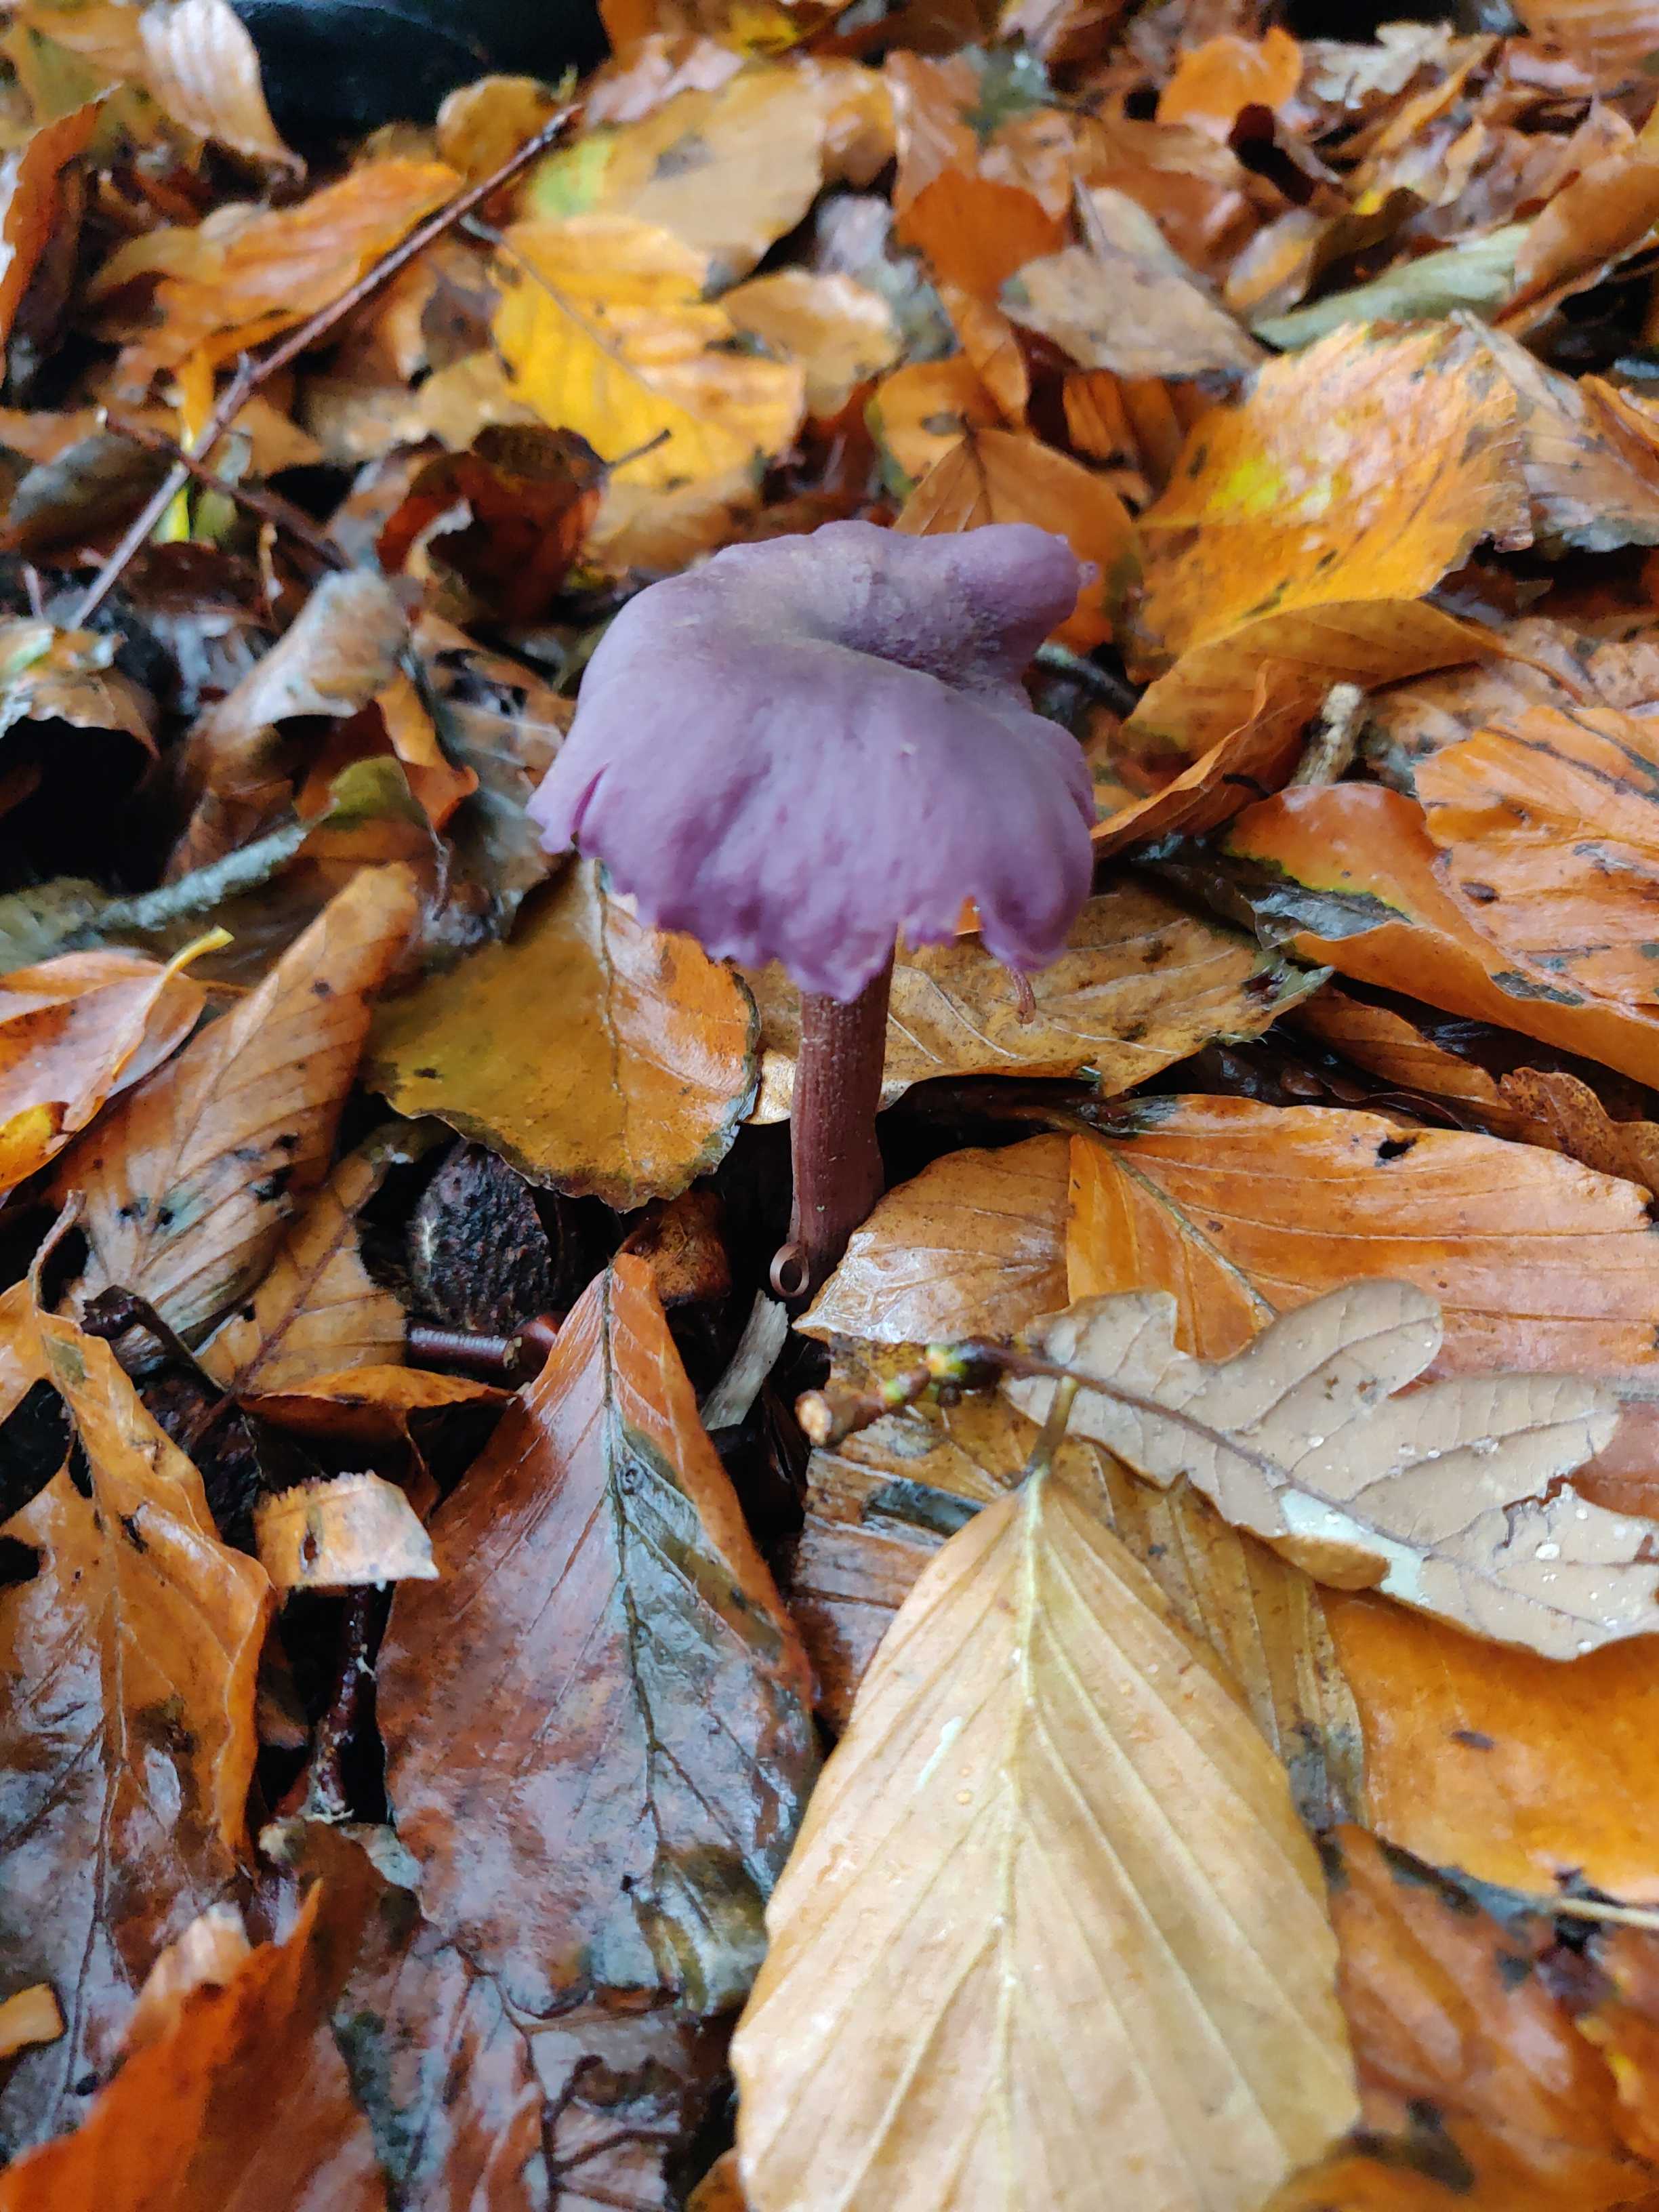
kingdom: Fungi
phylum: Basidiomycota
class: Agaricomycetes
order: Agaricales
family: Hydnangiaceae
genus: Laccaria
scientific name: Laccaria amethystina
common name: violet ametysthat
